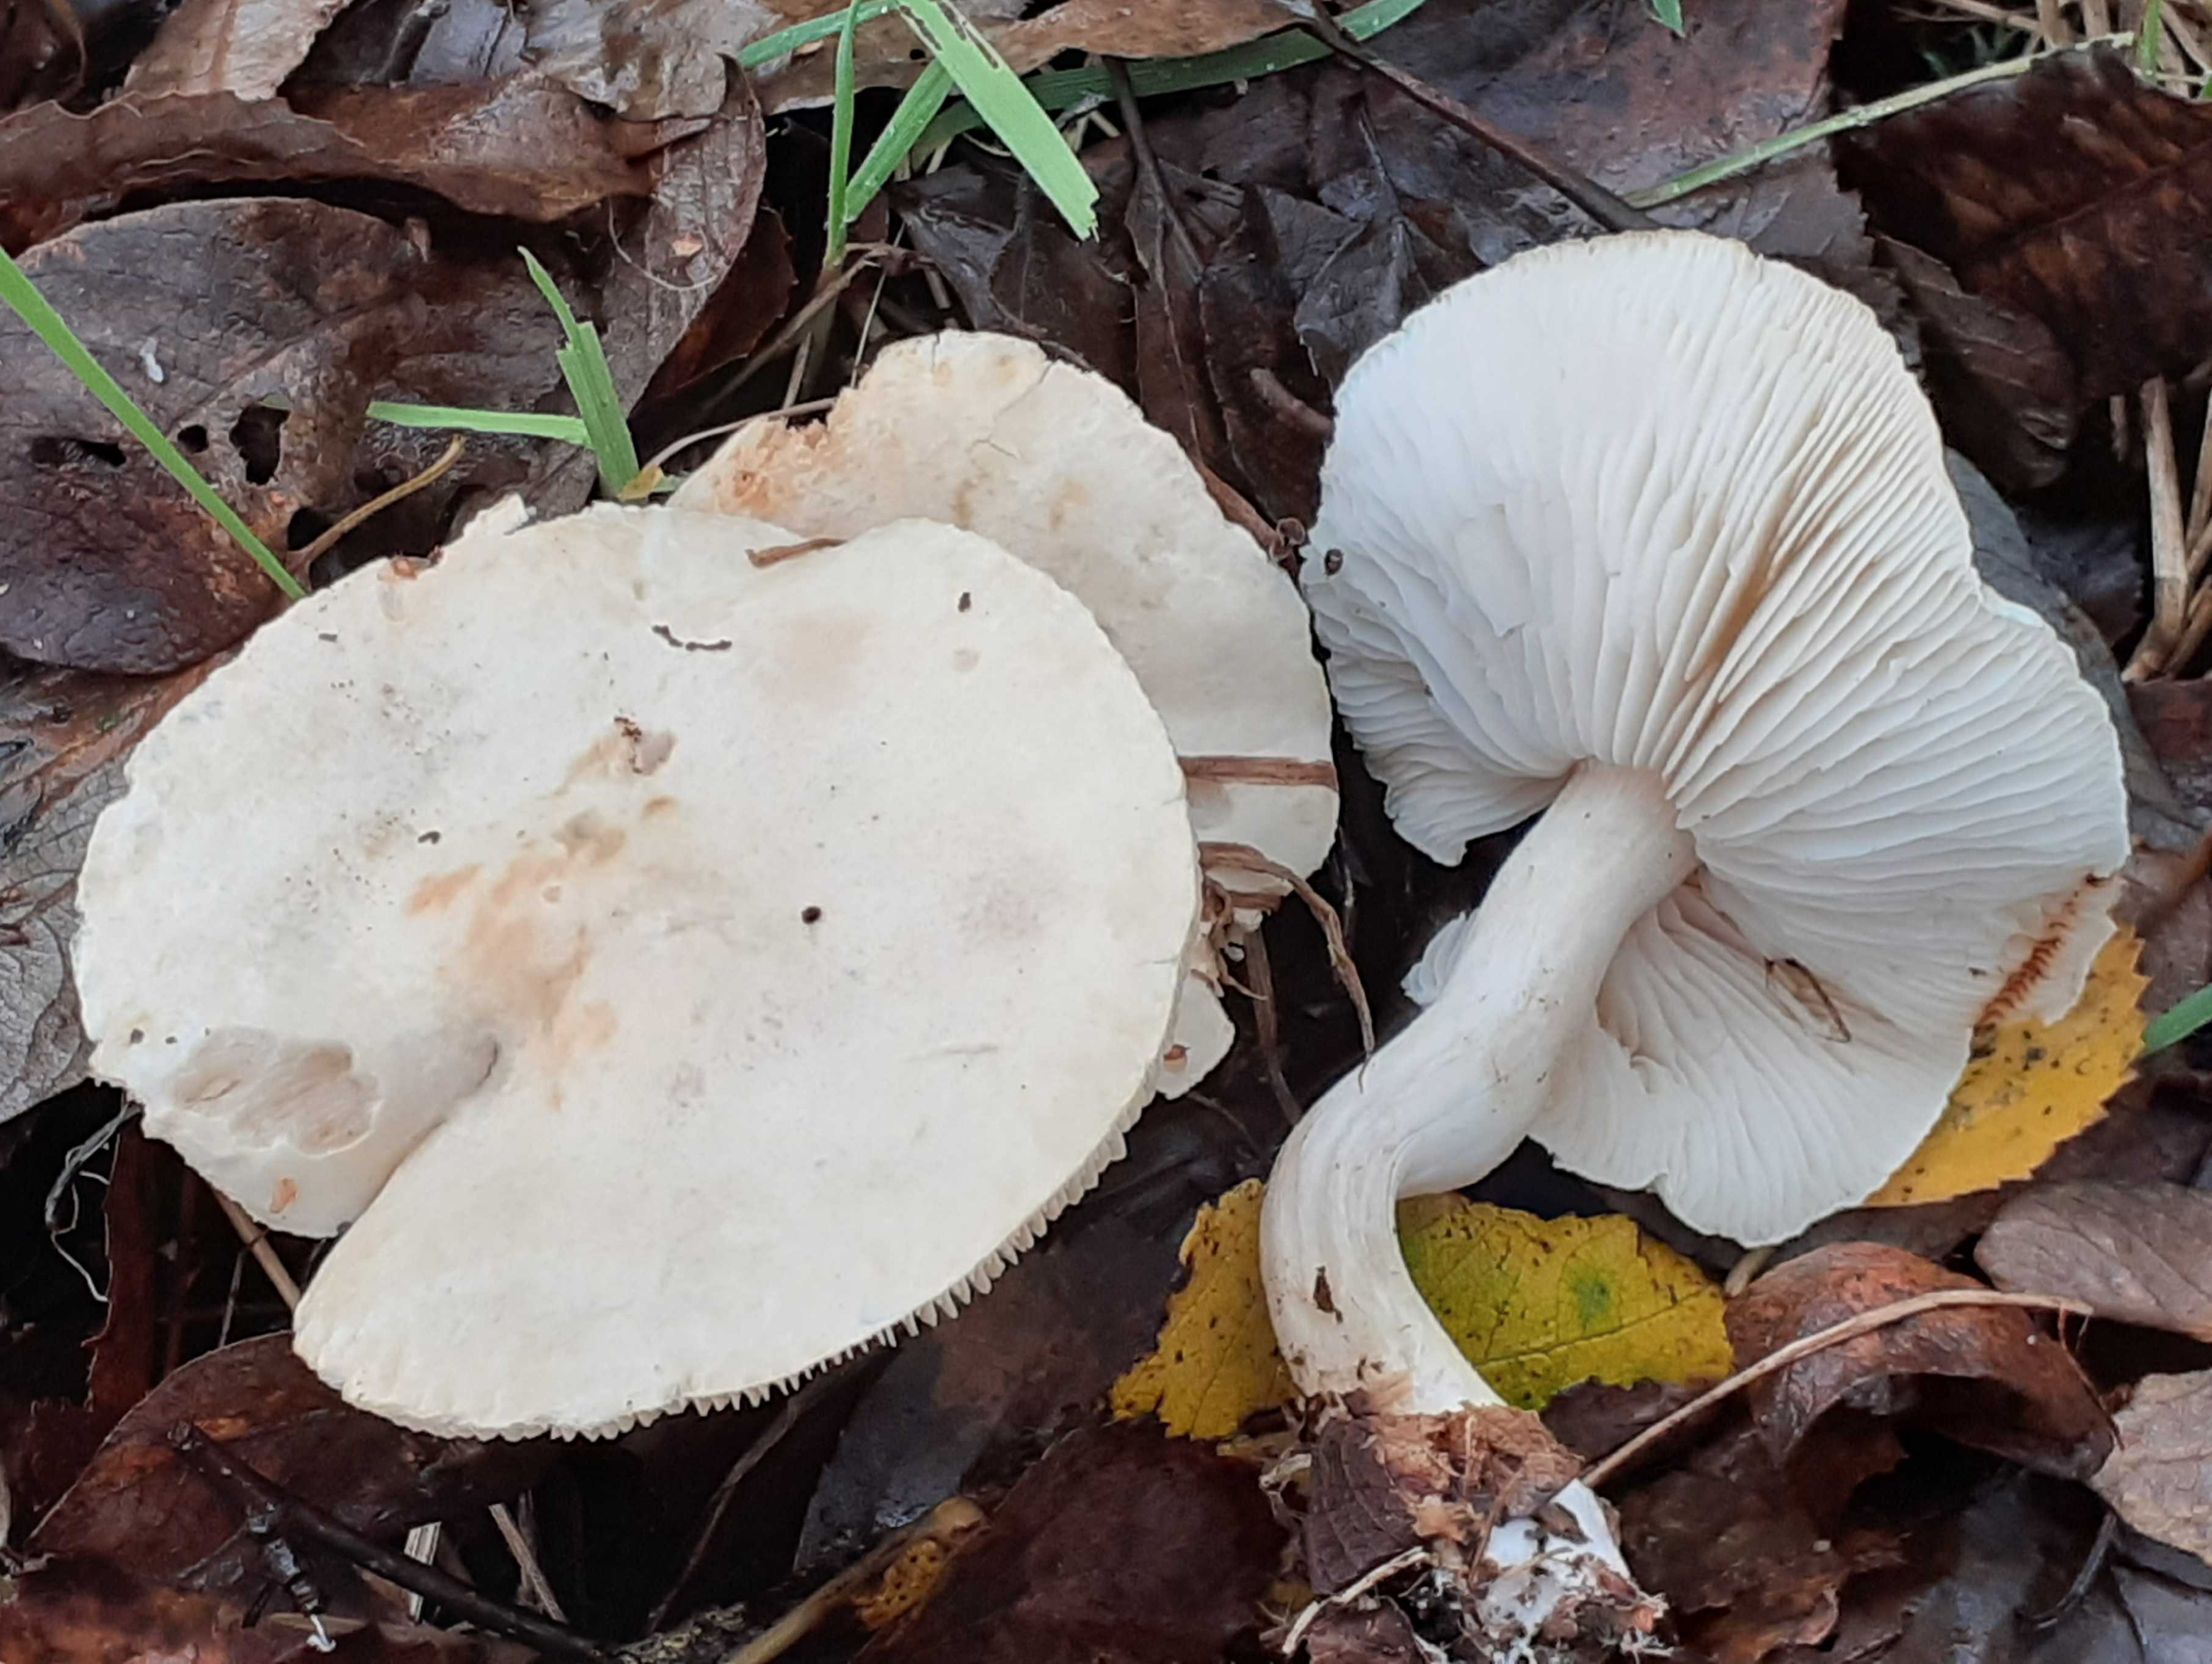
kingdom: Fungi
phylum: Basidiomycota
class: Agaricomycetes
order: Agaricales
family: Tricholomataceae
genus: Tricholoma
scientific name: Tricholoma stiparophyllum
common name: hvid ridderhat
